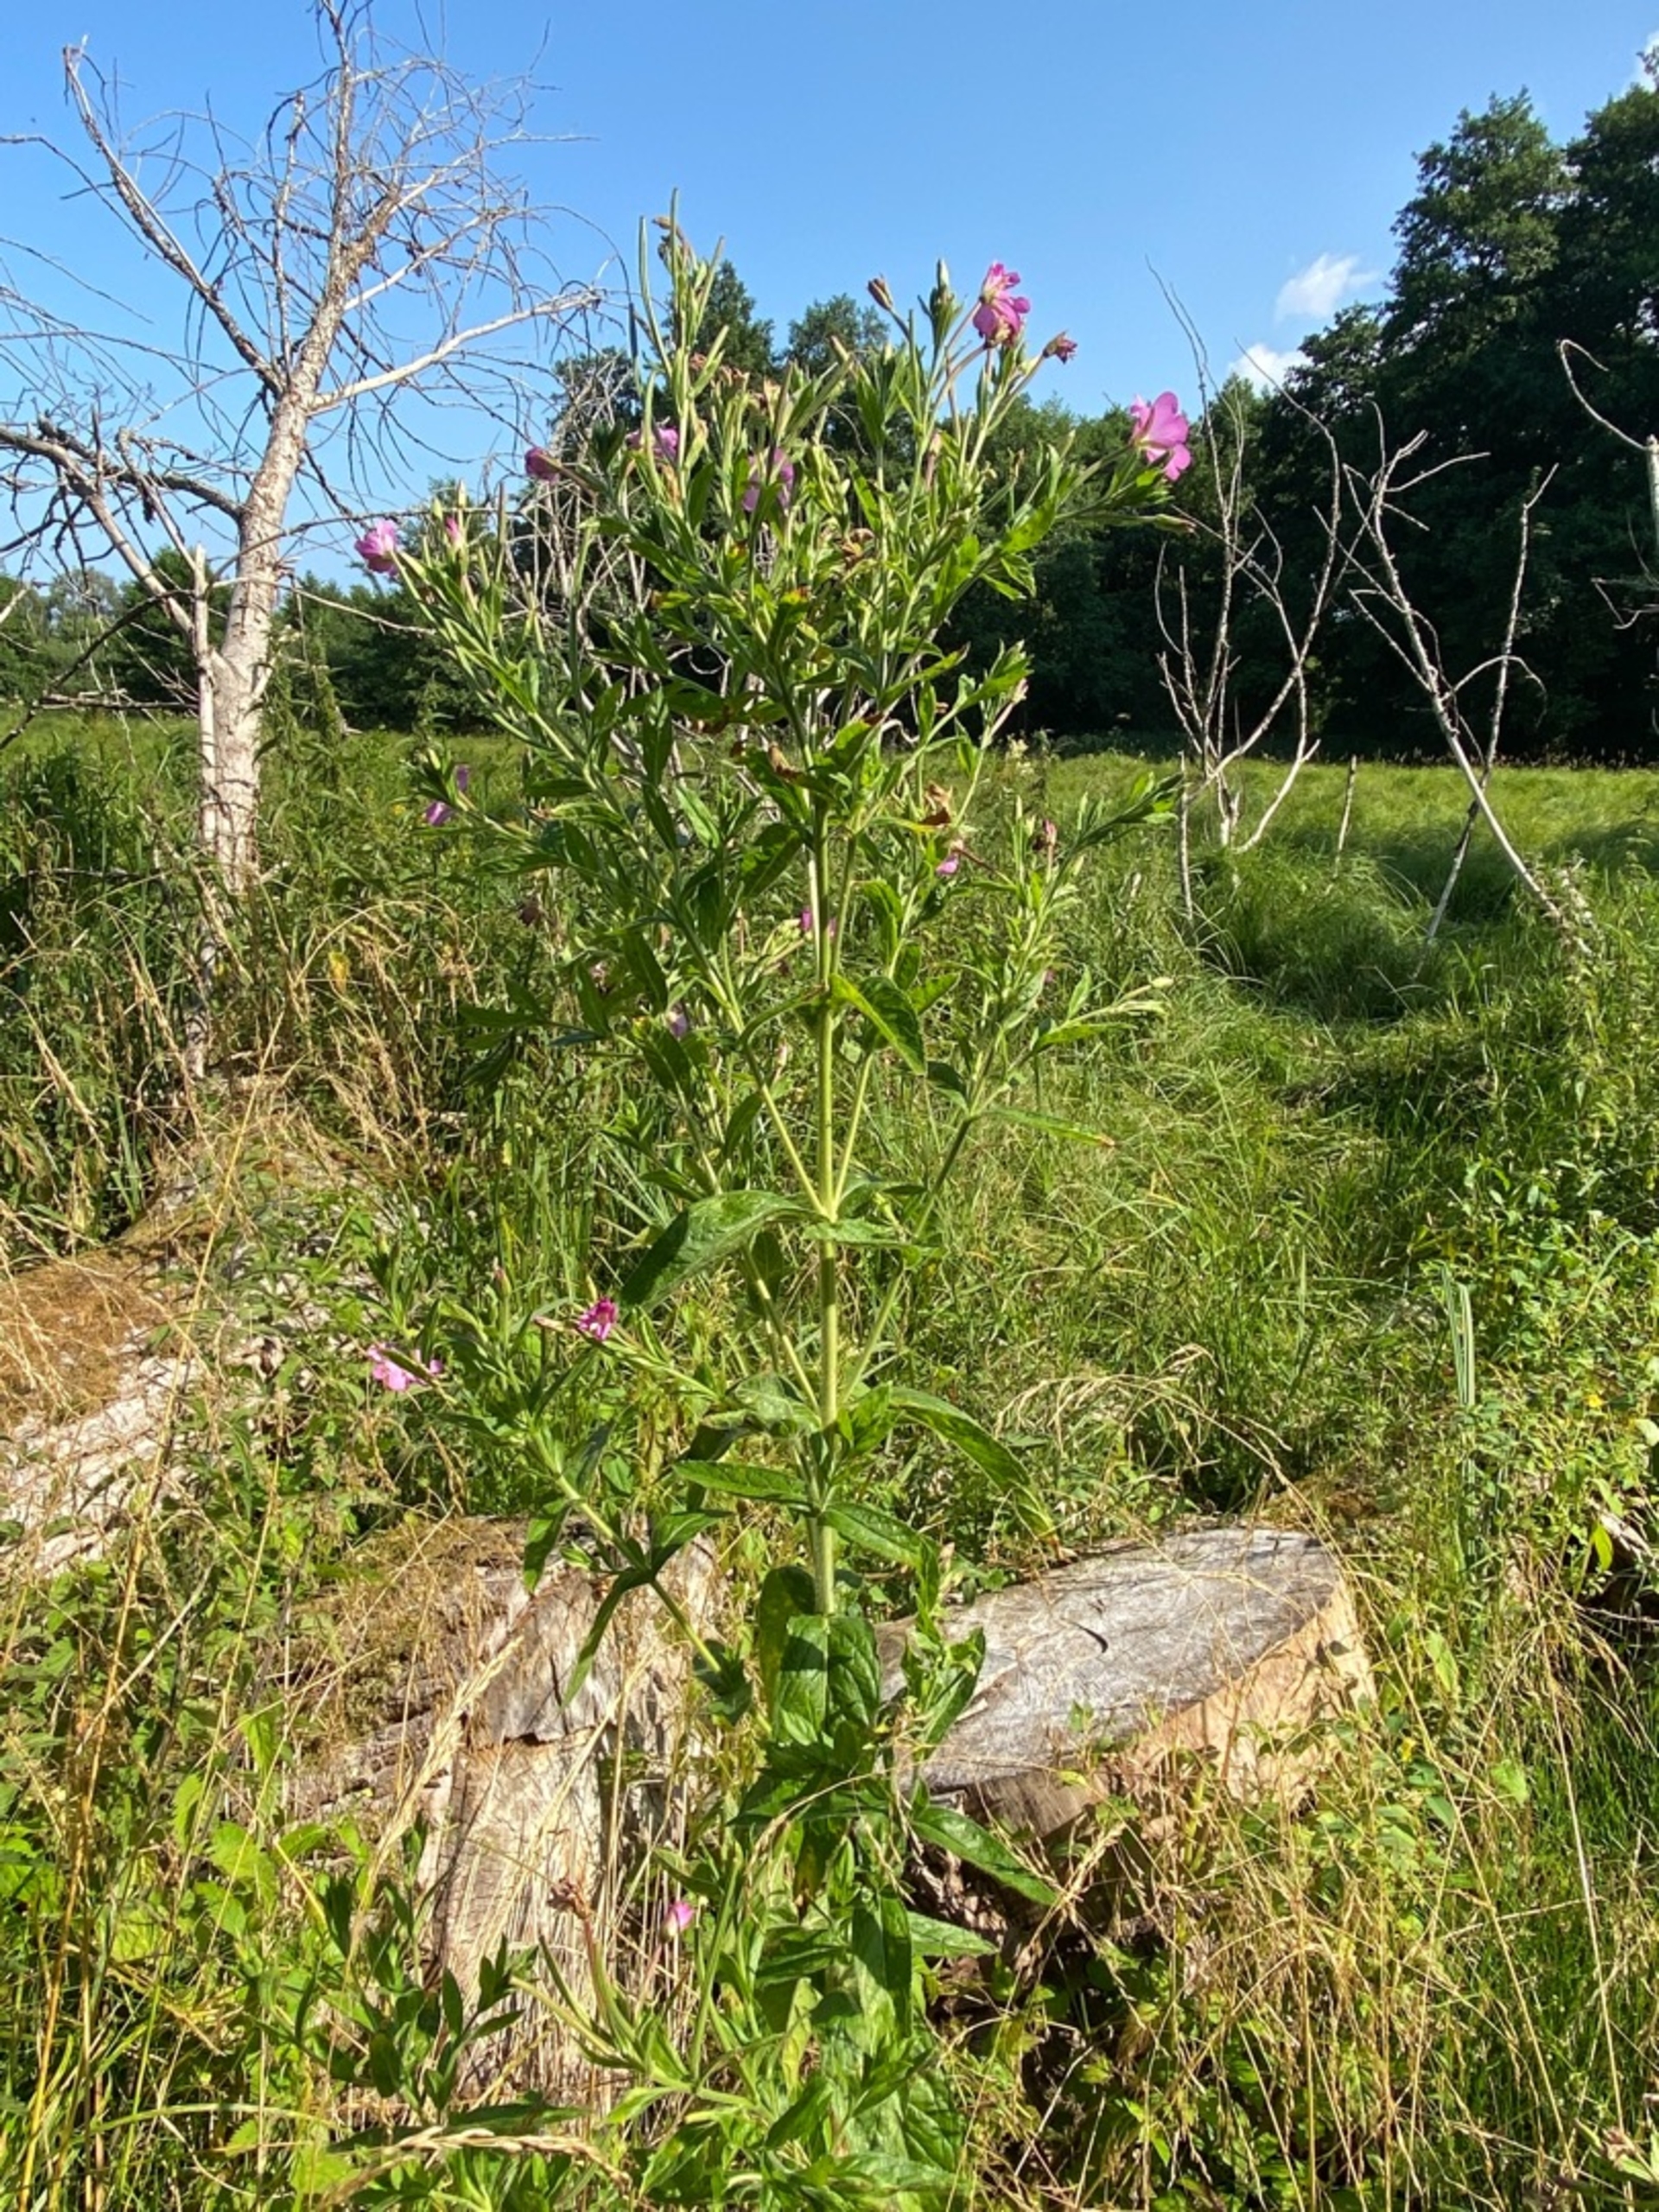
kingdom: Plantae
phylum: Tracheophyta
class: Magnoliopsida
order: Myrtales
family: Onagraceae
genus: Epilobium
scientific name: Epilobium hirsutum
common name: Lådden dueurt
